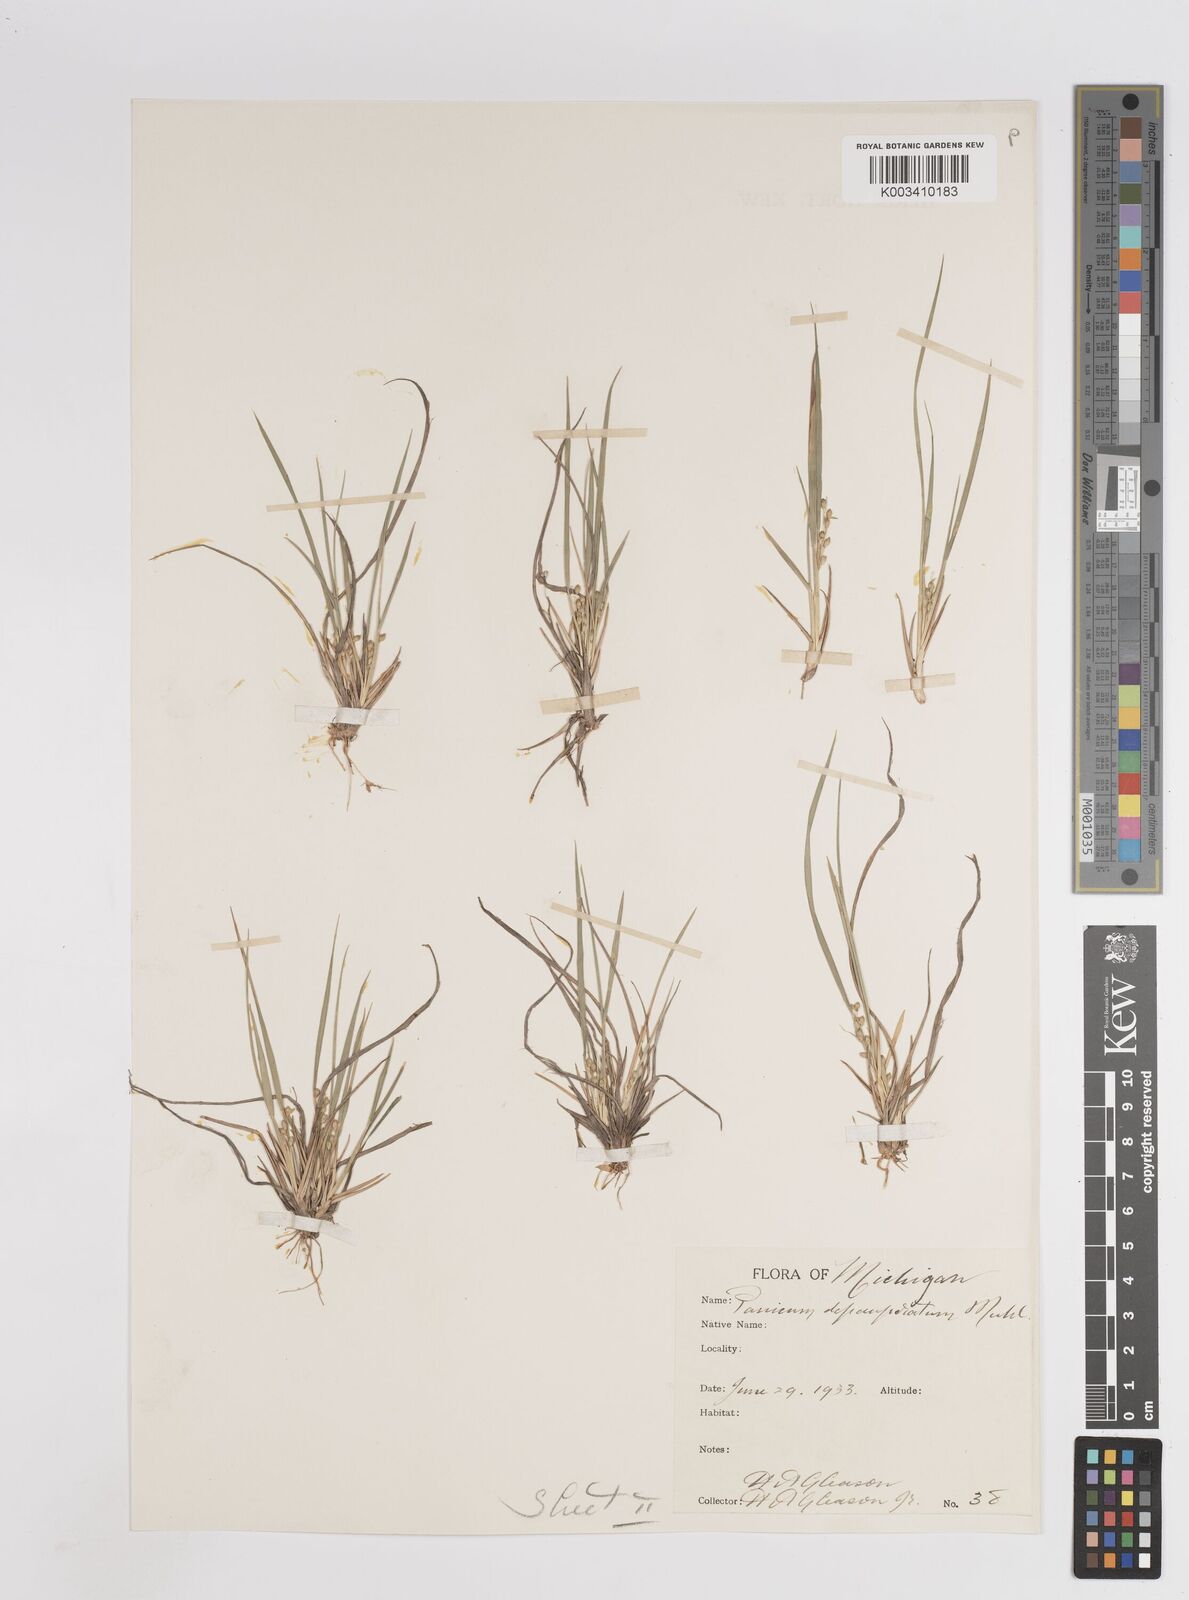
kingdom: Plantae
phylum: Tracheophyta
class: Liliopsida
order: Poales
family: Poaceae
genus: Dichanthelium
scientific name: Dichanthelium depauperatum
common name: Depauperate panicgrass
